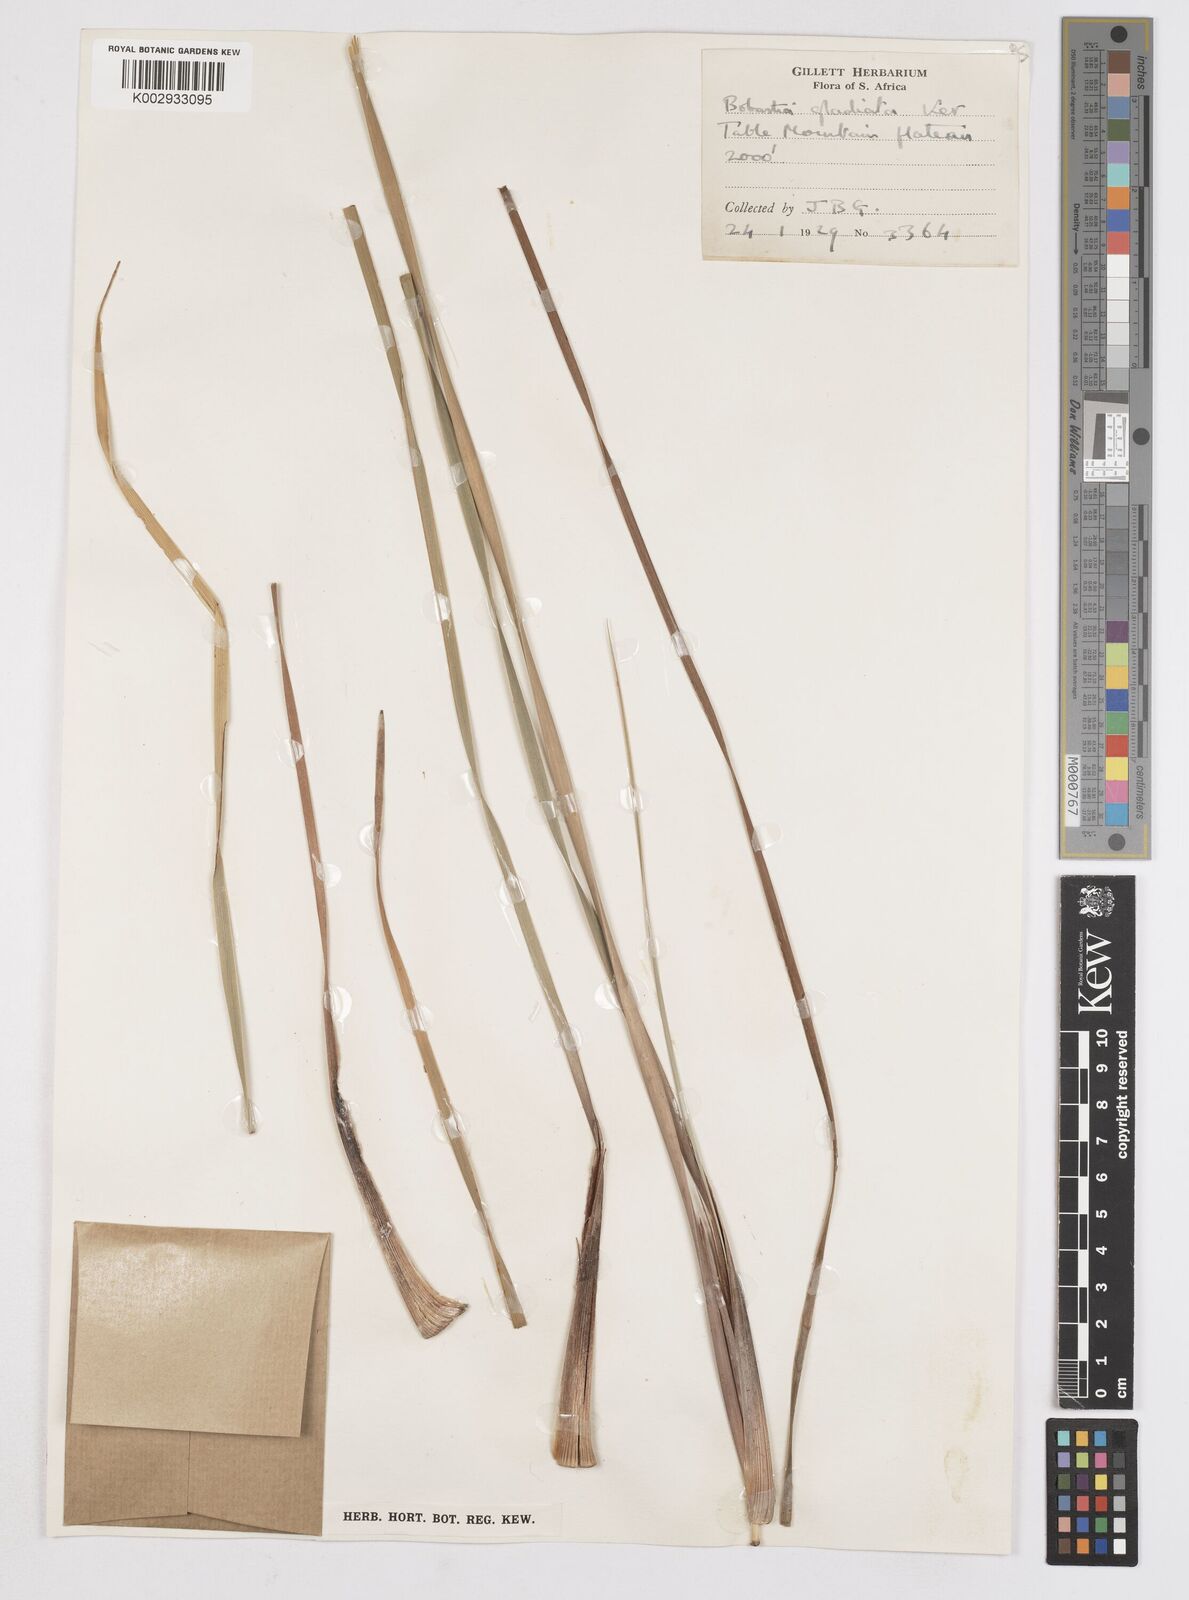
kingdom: Plantae
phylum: Tracheophyta
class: Liliopsida
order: Asparagales
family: Iridaceae
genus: Bobartia
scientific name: Bobartia gladiata
